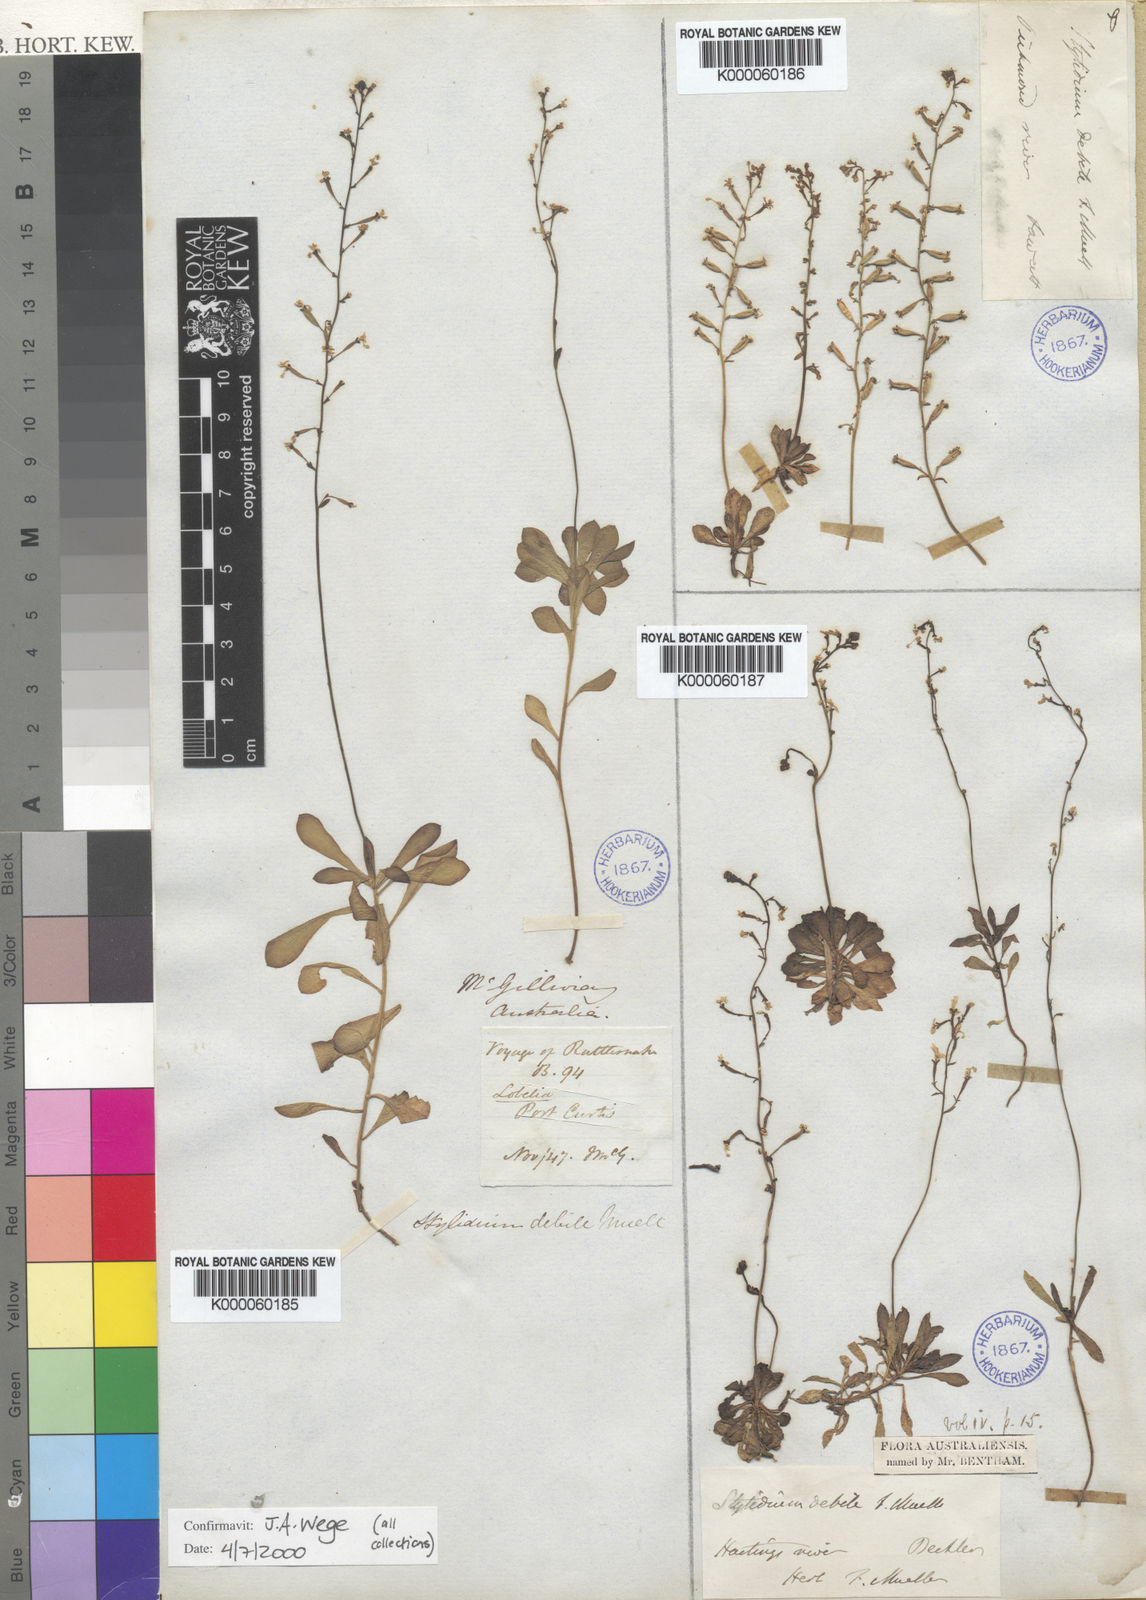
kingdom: Plantae
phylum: Tracheophyta
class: Magnoliopsida
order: Asterales
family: Stylidiaceae
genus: Stylidium
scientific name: Stylidium debile
